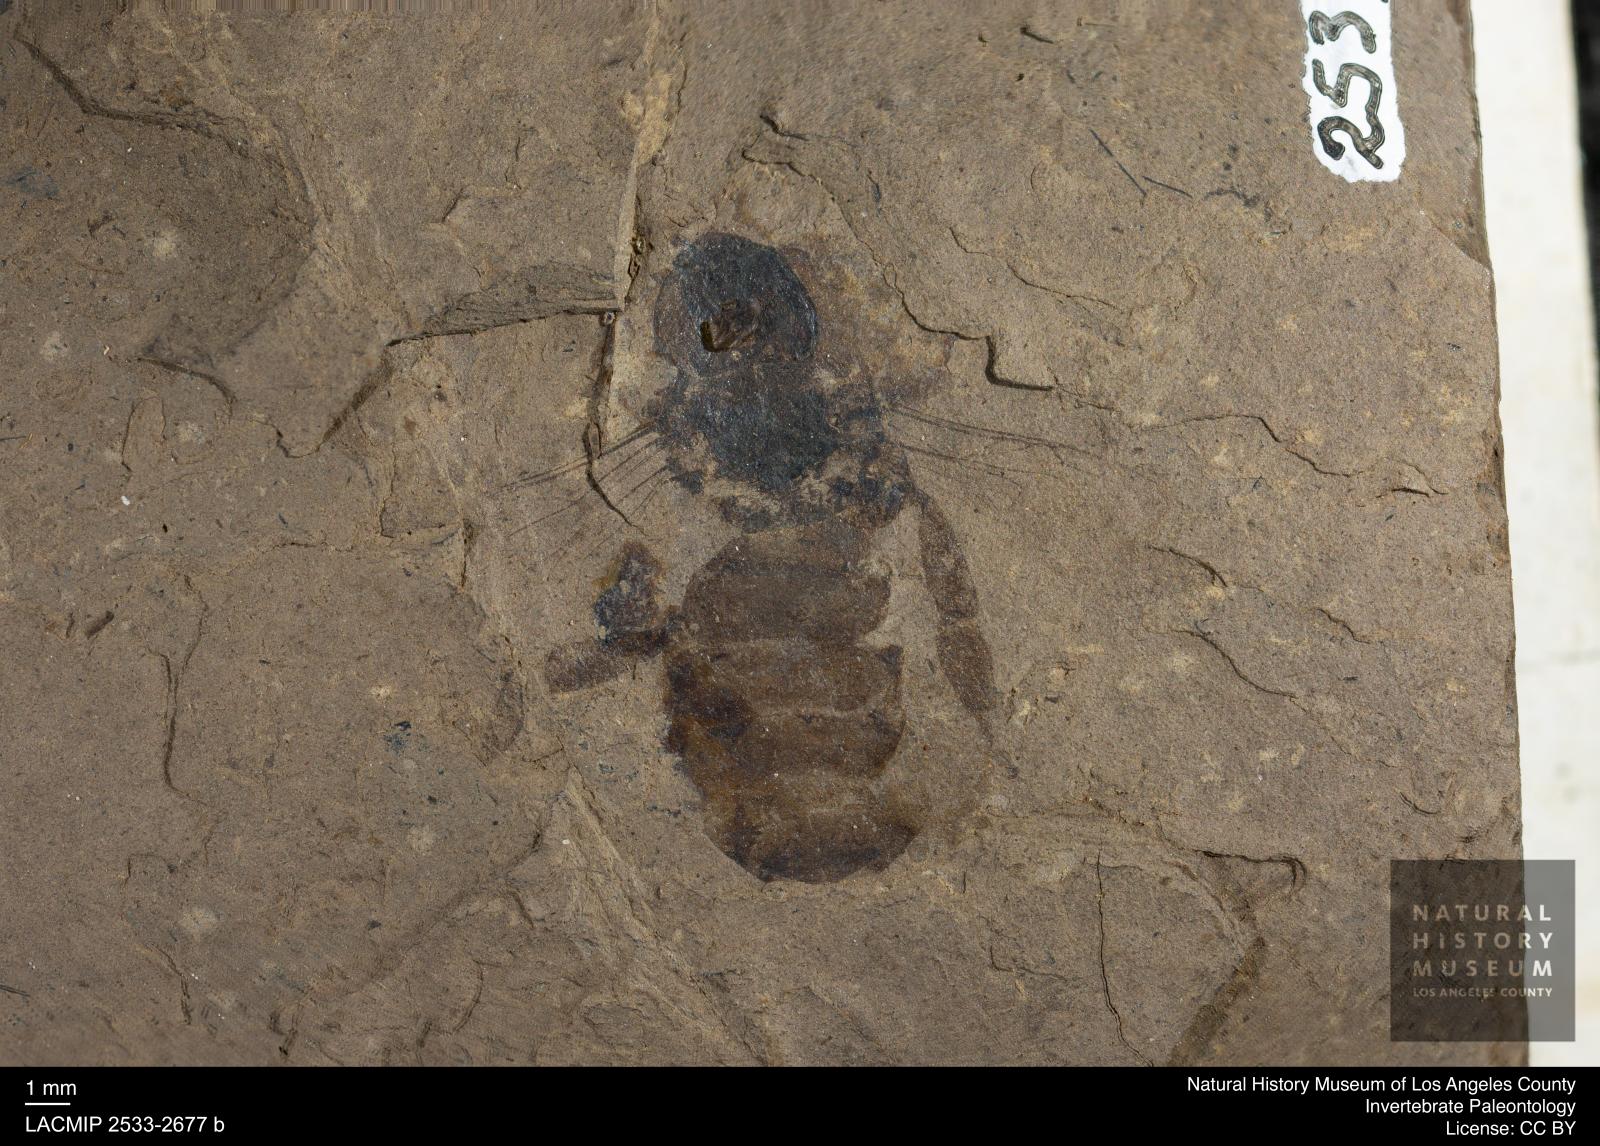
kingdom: Animalia
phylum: Arthropoda
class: Insecta
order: Hymenoptera
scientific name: Hymenoptera
